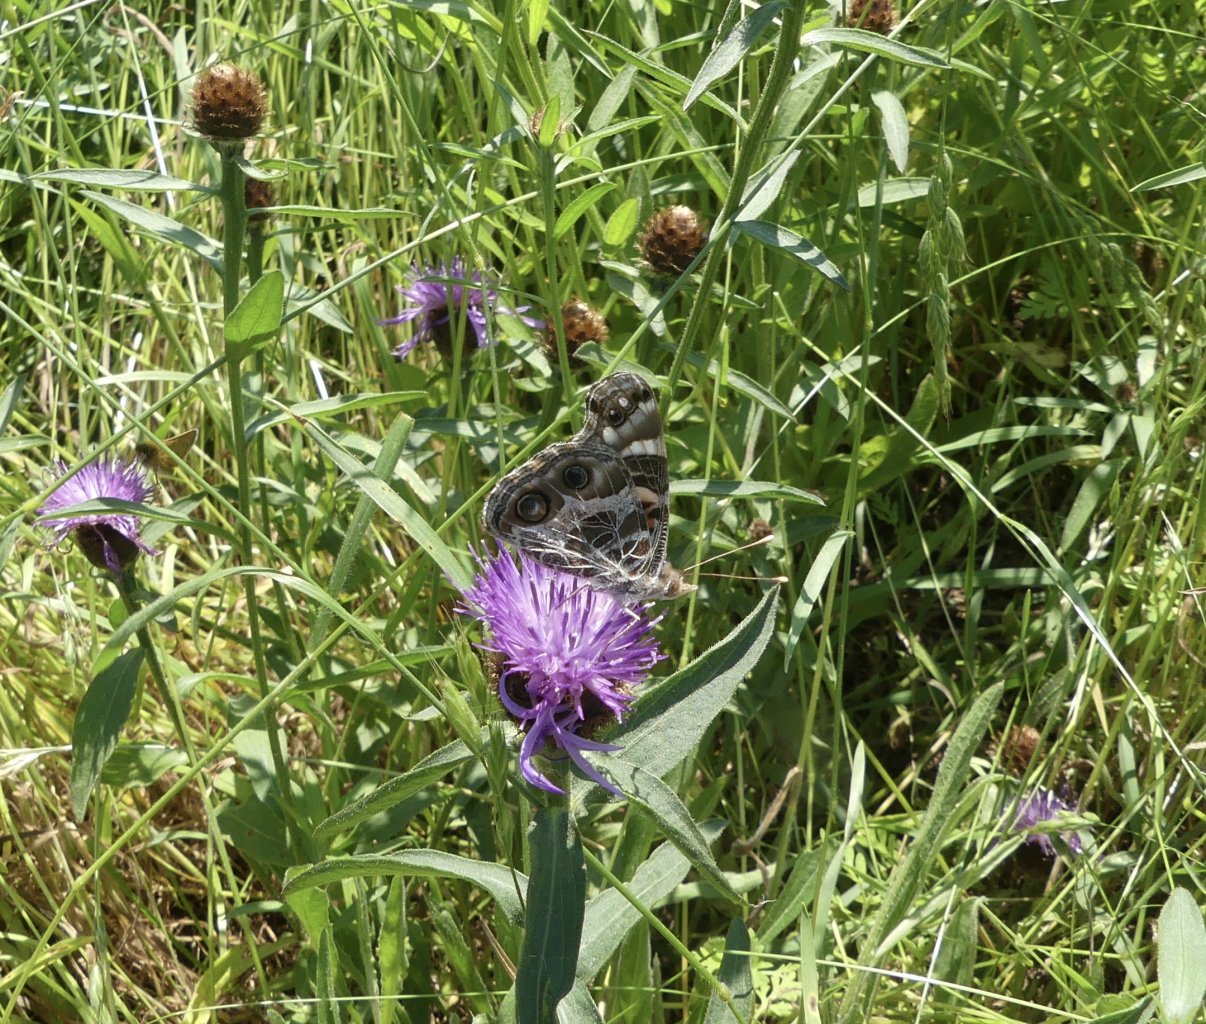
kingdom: Animalia
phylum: Arthropoda
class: Insecta
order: Lepidoptera
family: Nymphalidae
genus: Vanessa
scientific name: Vanessa virginiensis
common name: American Lady
